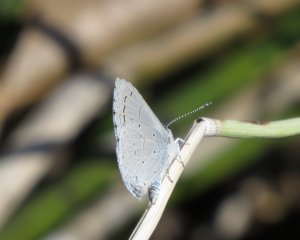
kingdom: Animalia
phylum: Arthropoda
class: Insecta
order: Lepidoptera
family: Lycaenidae
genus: Celastrina
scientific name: Celastrina ladon
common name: Spring Azure
